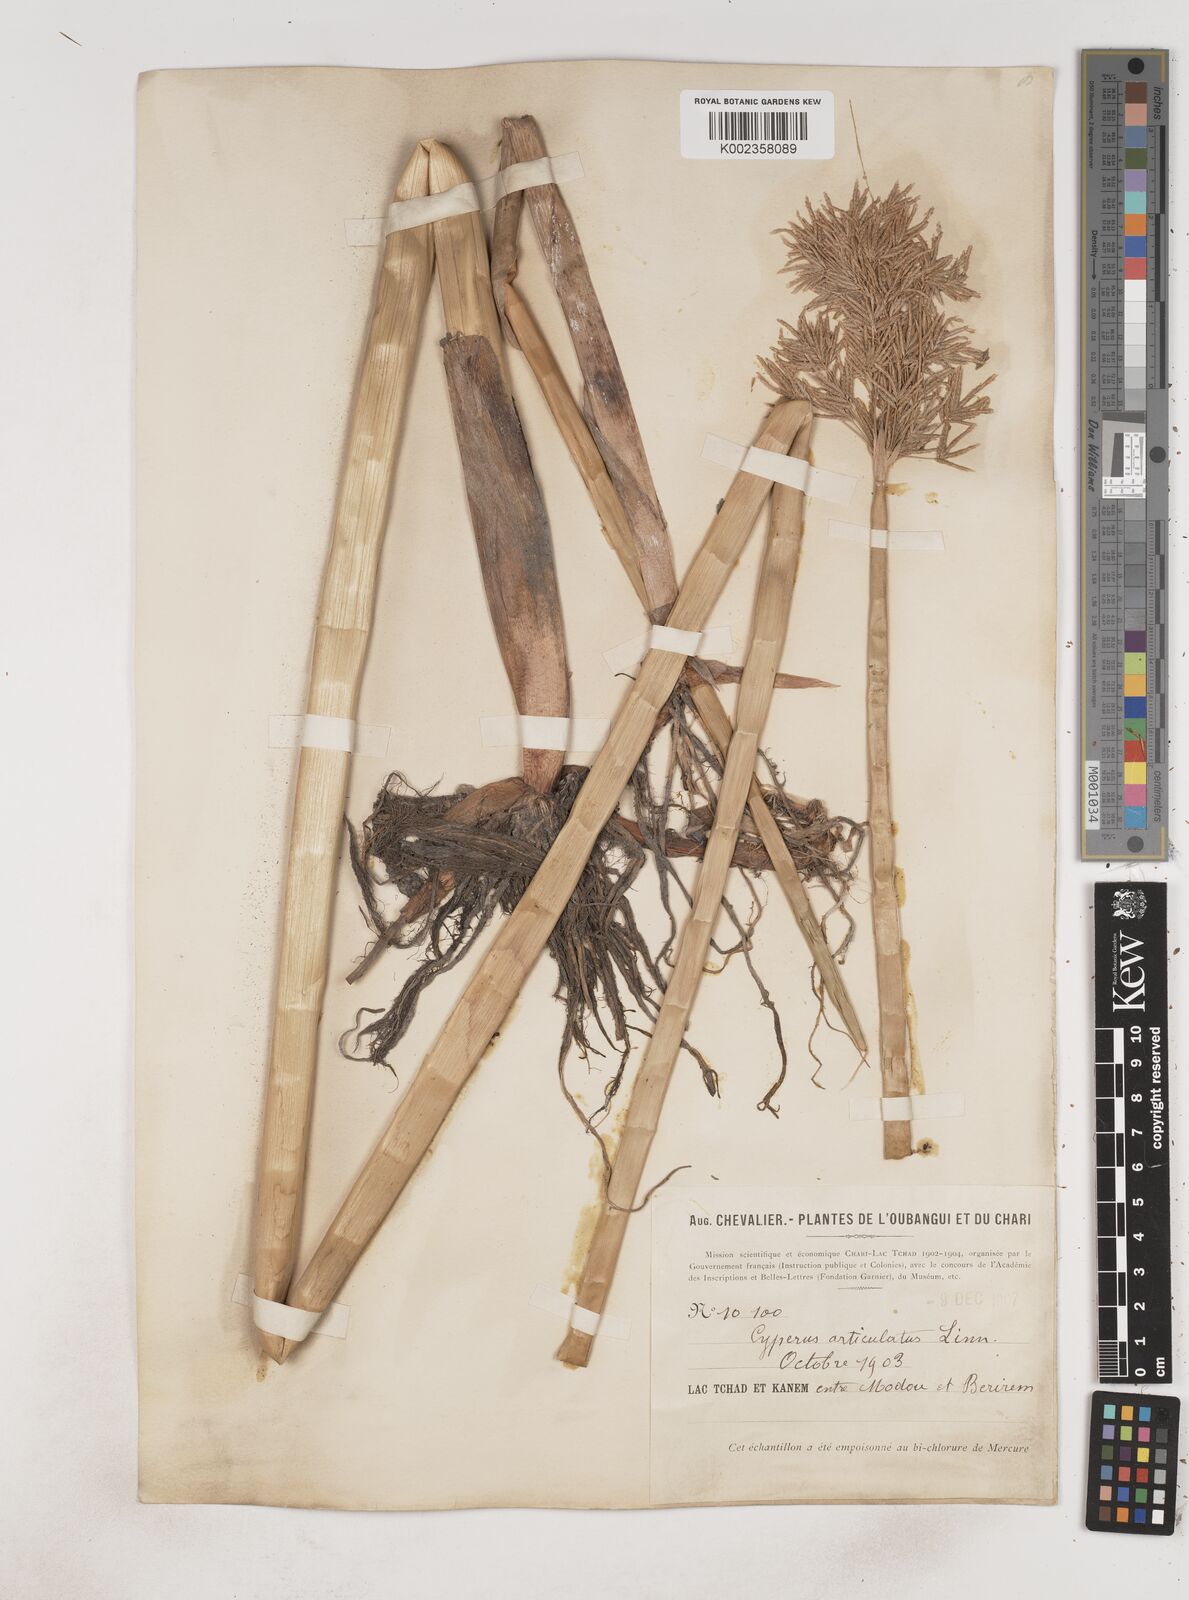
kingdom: Plantae
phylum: Tracheophyta
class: Liliopsida
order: Poales
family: Cyperaceae
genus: Cyperus
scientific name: Cyperus articulatus
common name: Jointed flatsedge
